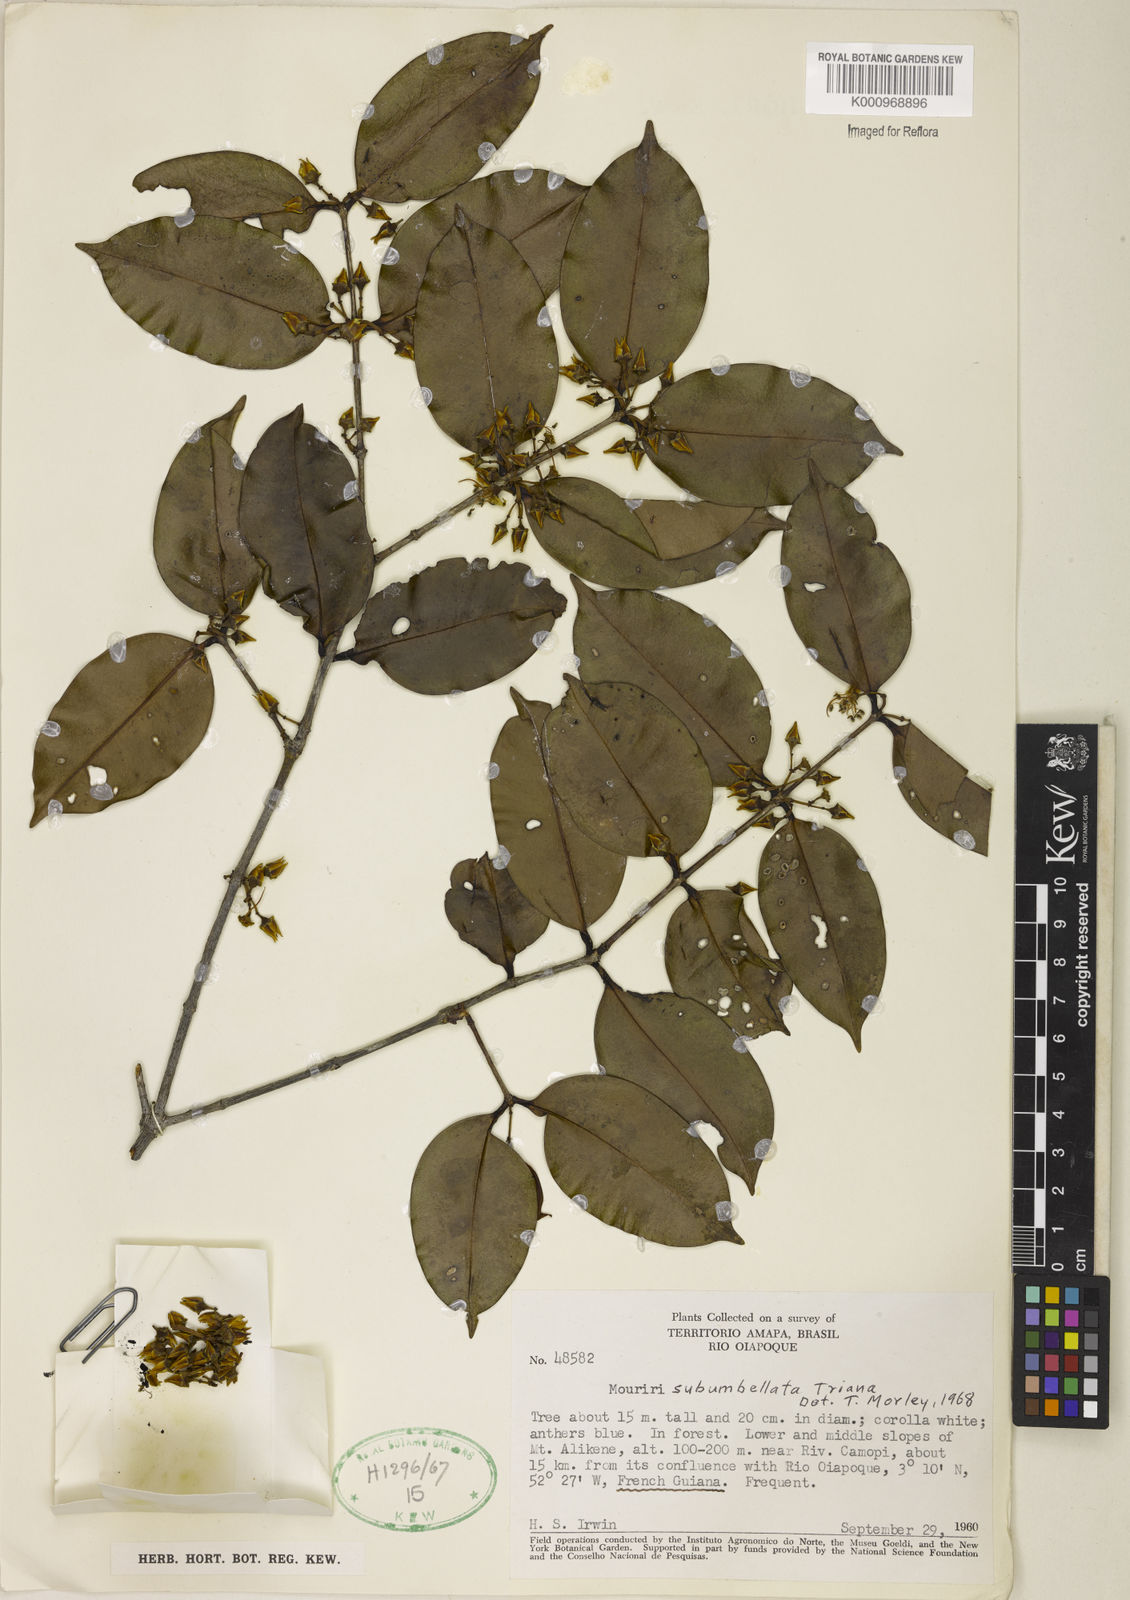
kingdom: Plantae
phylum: Tracheophyta
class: Magnoliopsida
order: Myrtales
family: Melastomataceae
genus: Mouriri
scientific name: Mouriri subumbellata
